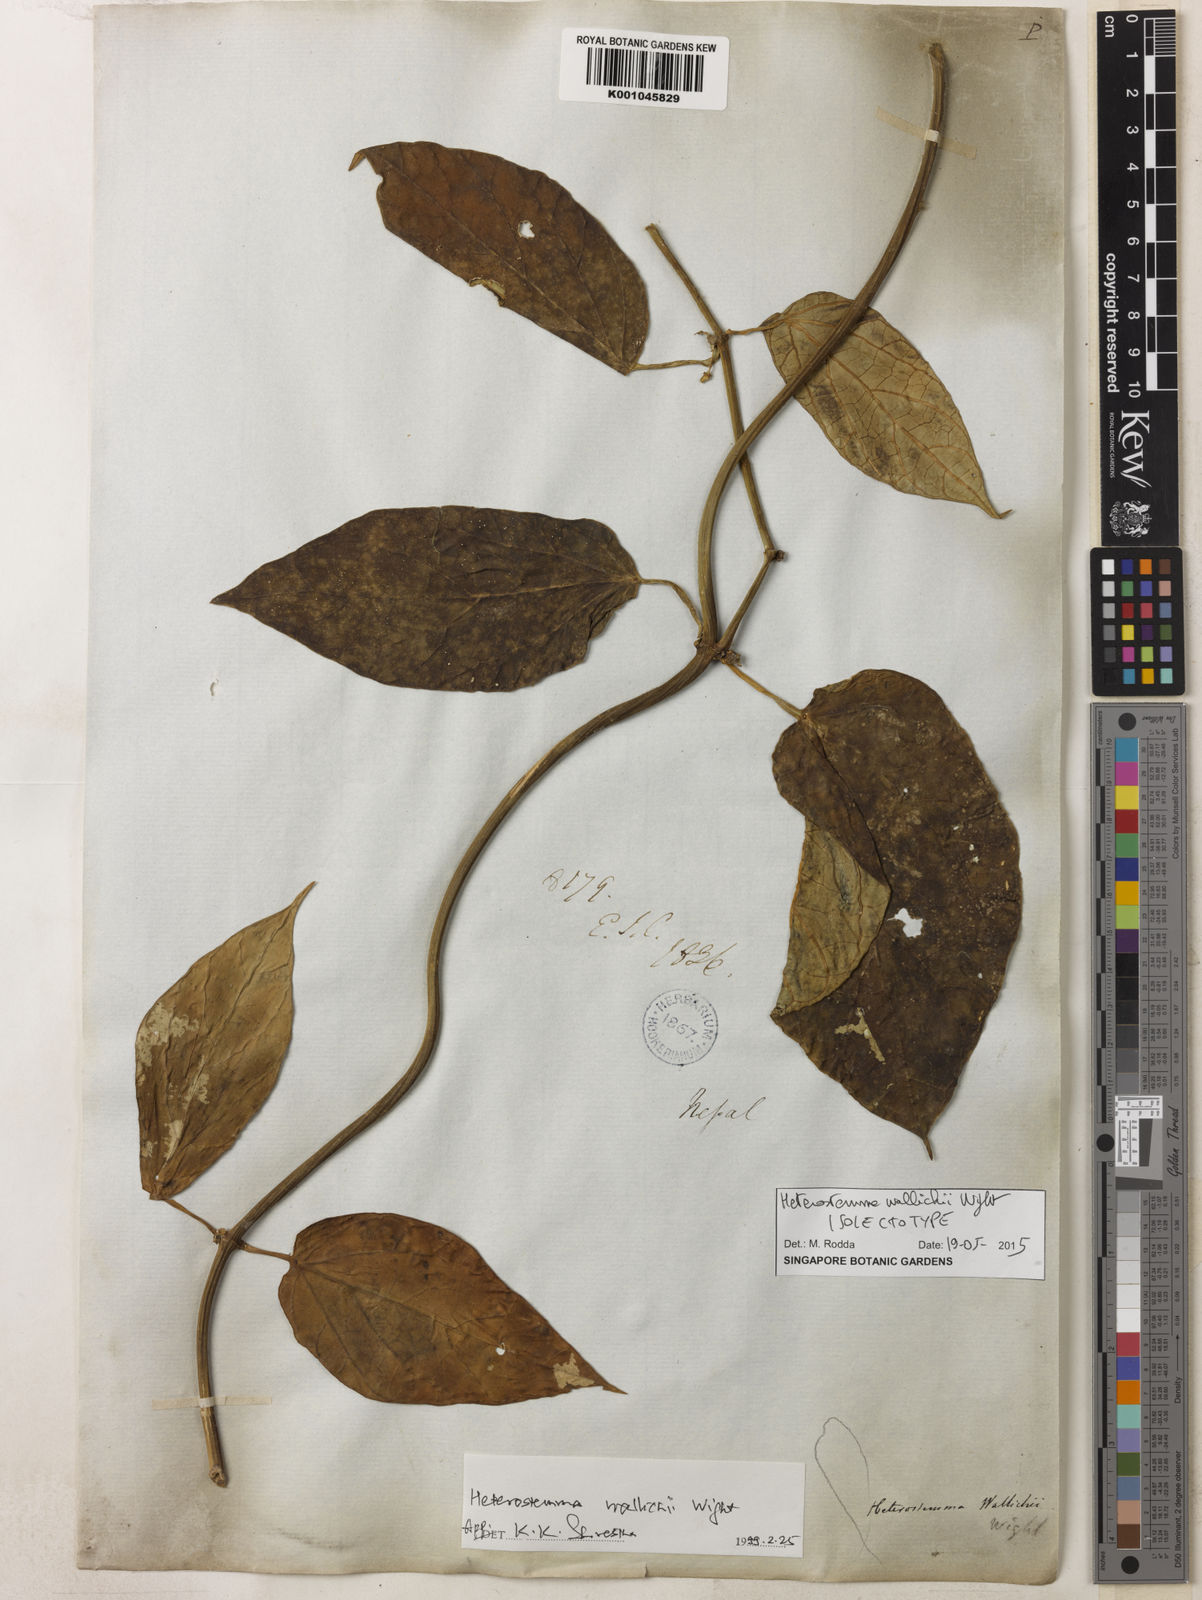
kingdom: Plantae
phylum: Tracheophyta
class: Magnoliopsida
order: Gentianales
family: Apocynaceae
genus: Heterostemma
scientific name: Heterostemma wallichii
